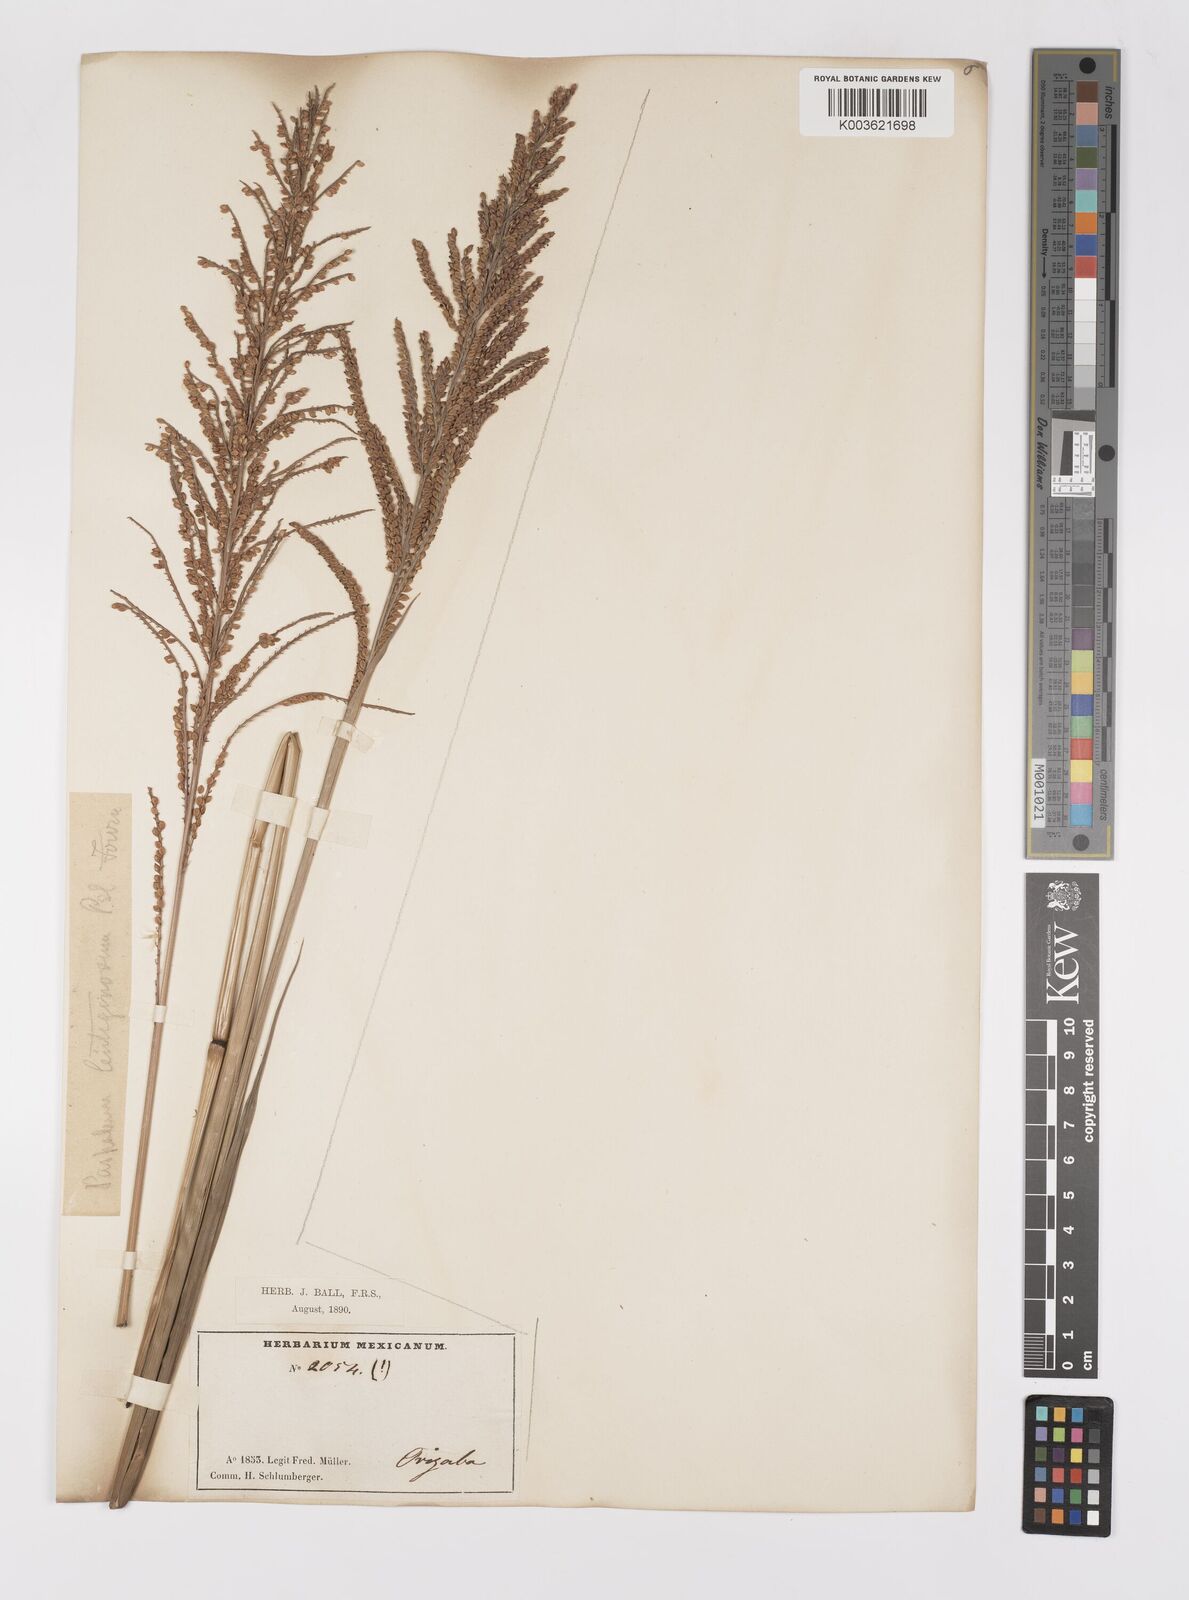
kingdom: Plantae
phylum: Tracheophyta
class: Liliopsida
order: Poales
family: Poaceae
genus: Paspalum
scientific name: Paspalum plenum
